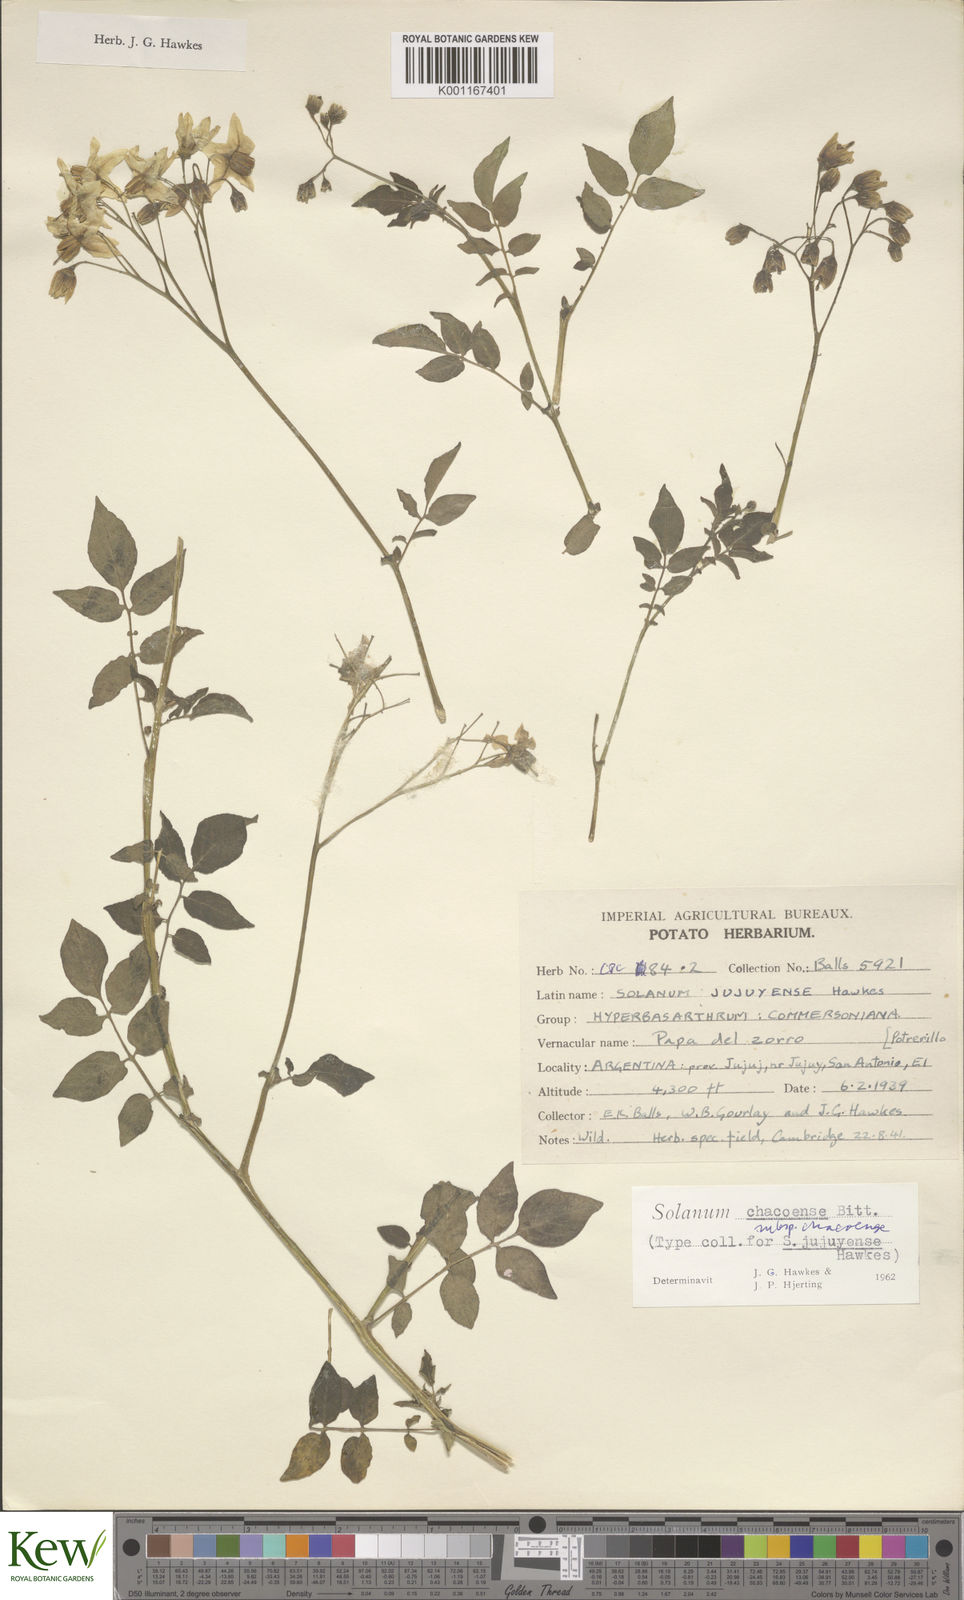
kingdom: Plantae
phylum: Tracheophyta
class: Magnoliopsida
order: Solanales
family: Solanaceae
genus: Solanum
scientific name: Solanum chacoense
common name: Chaco potato
